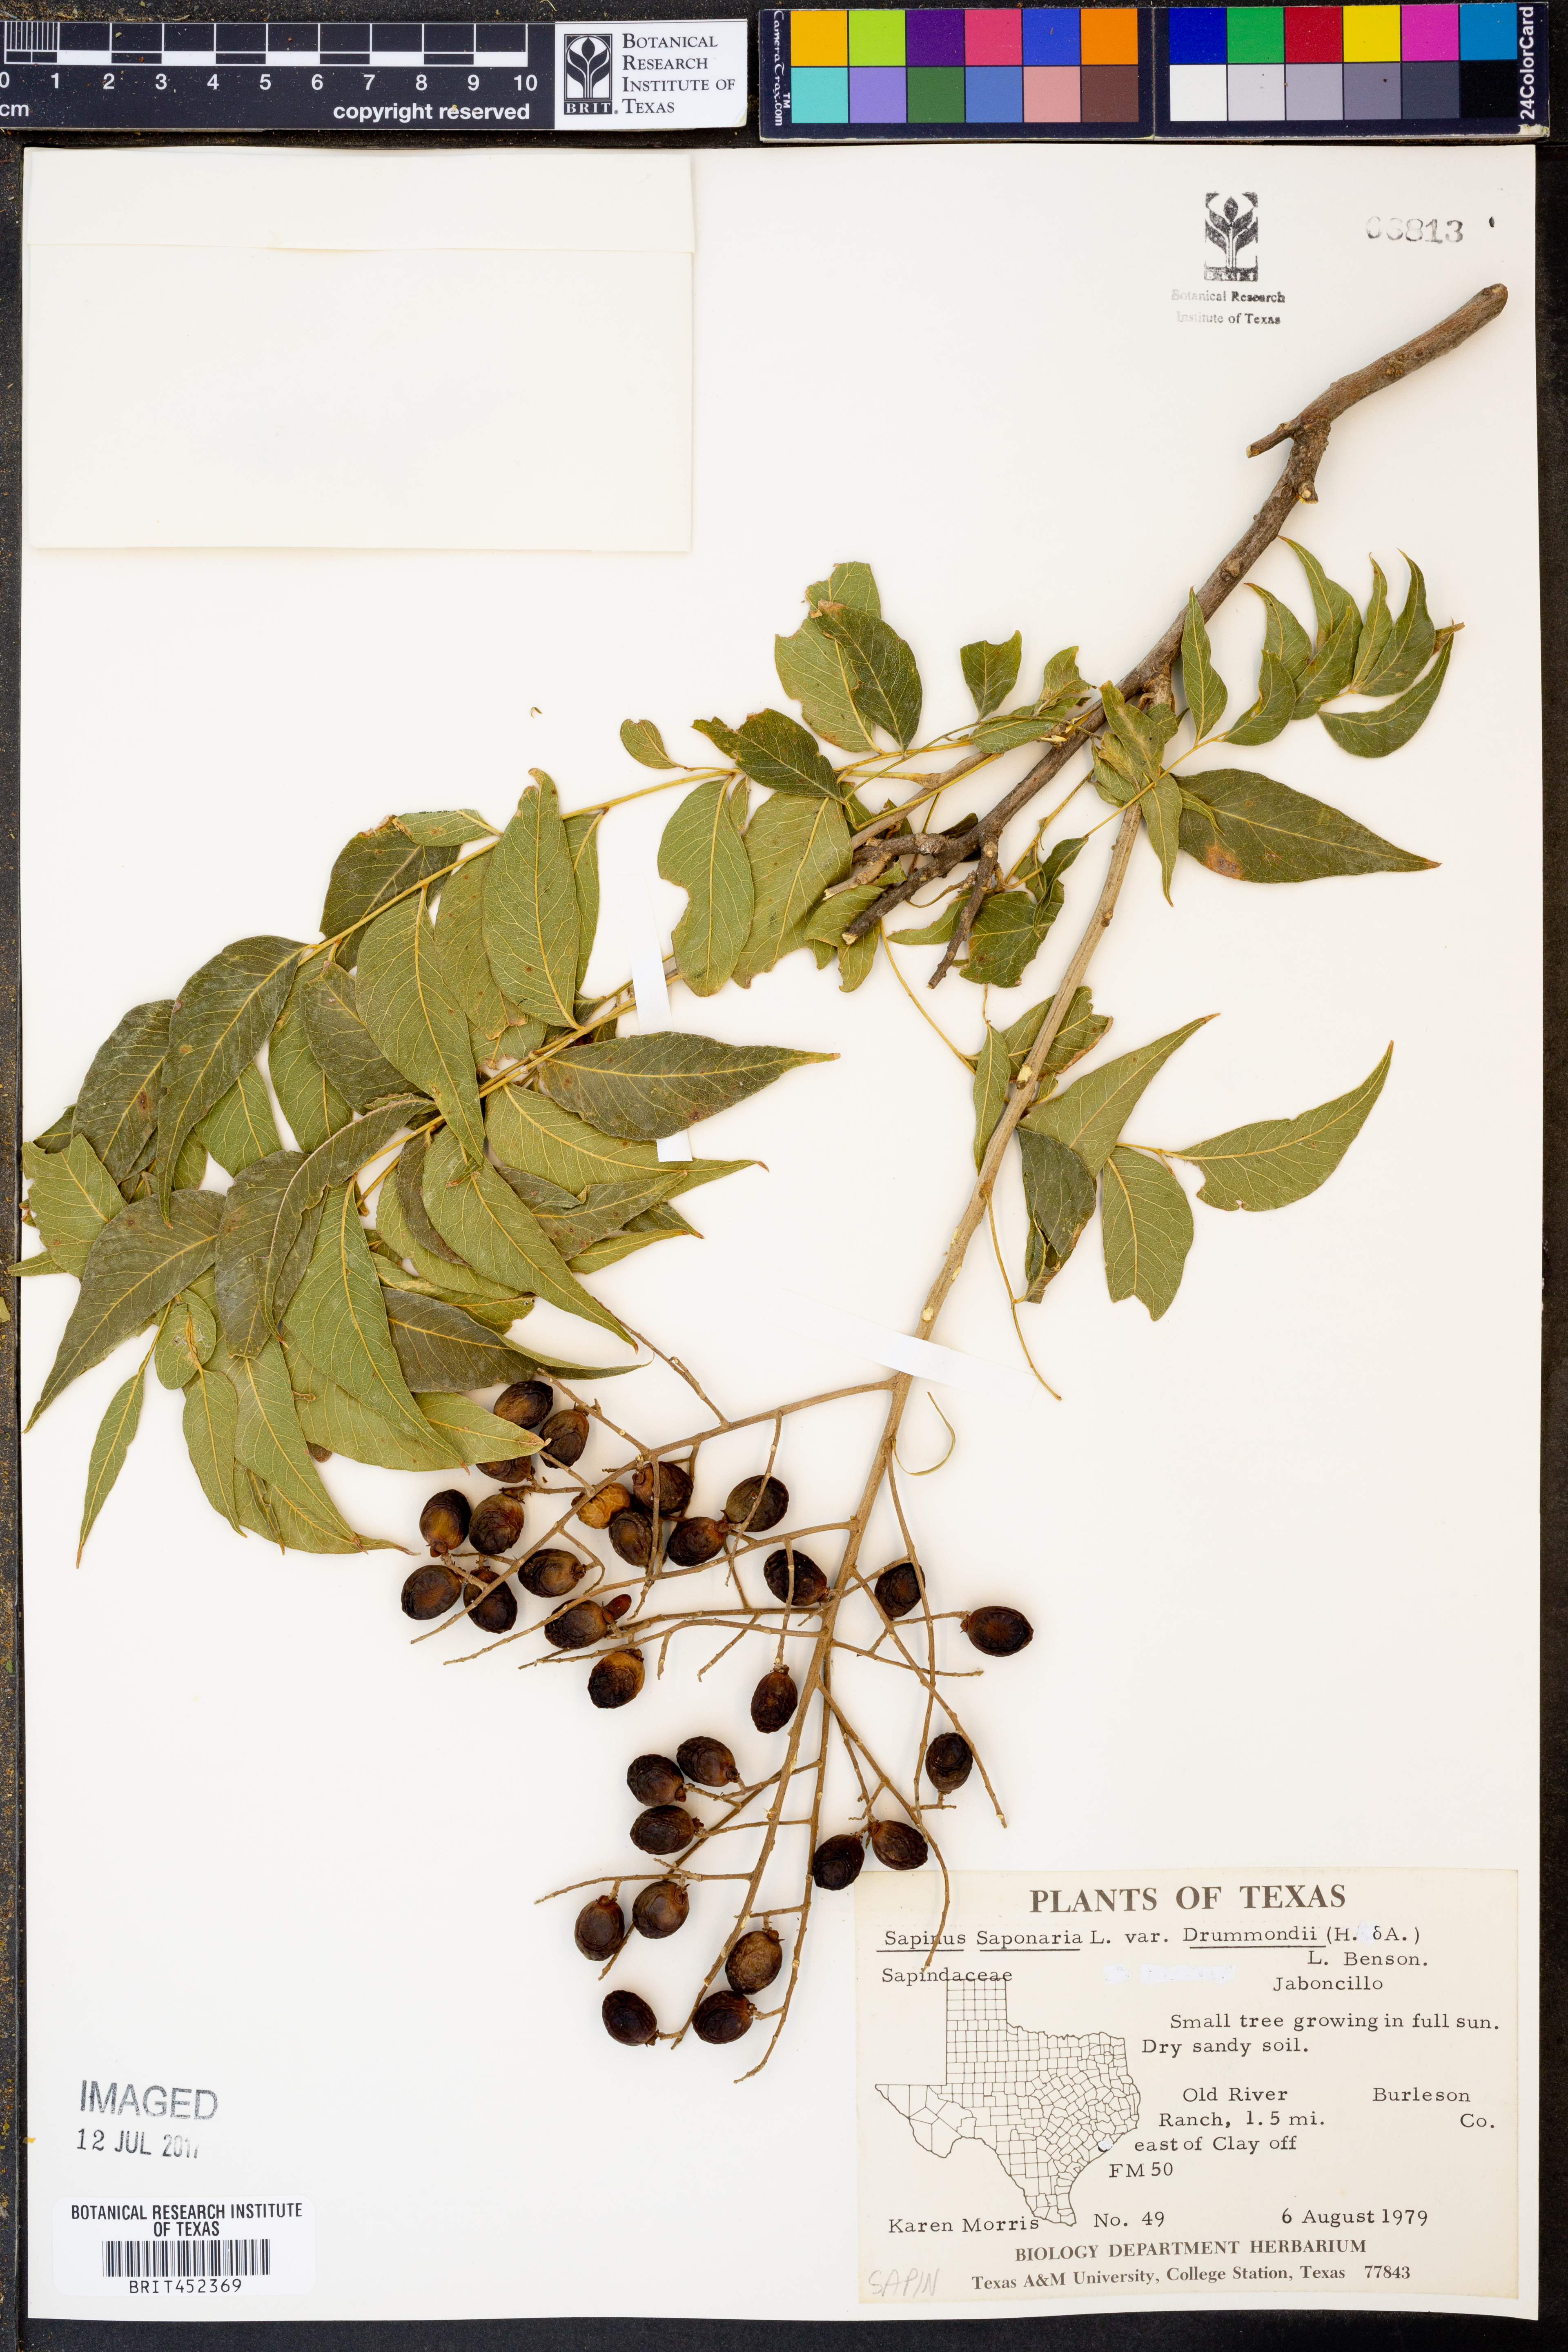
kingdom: Plantae
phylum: Tracheophyta
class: Magnoliopsida
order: Sapindales
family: Sapindaceae
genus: Sapindus
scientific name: Sapindus drummondii
